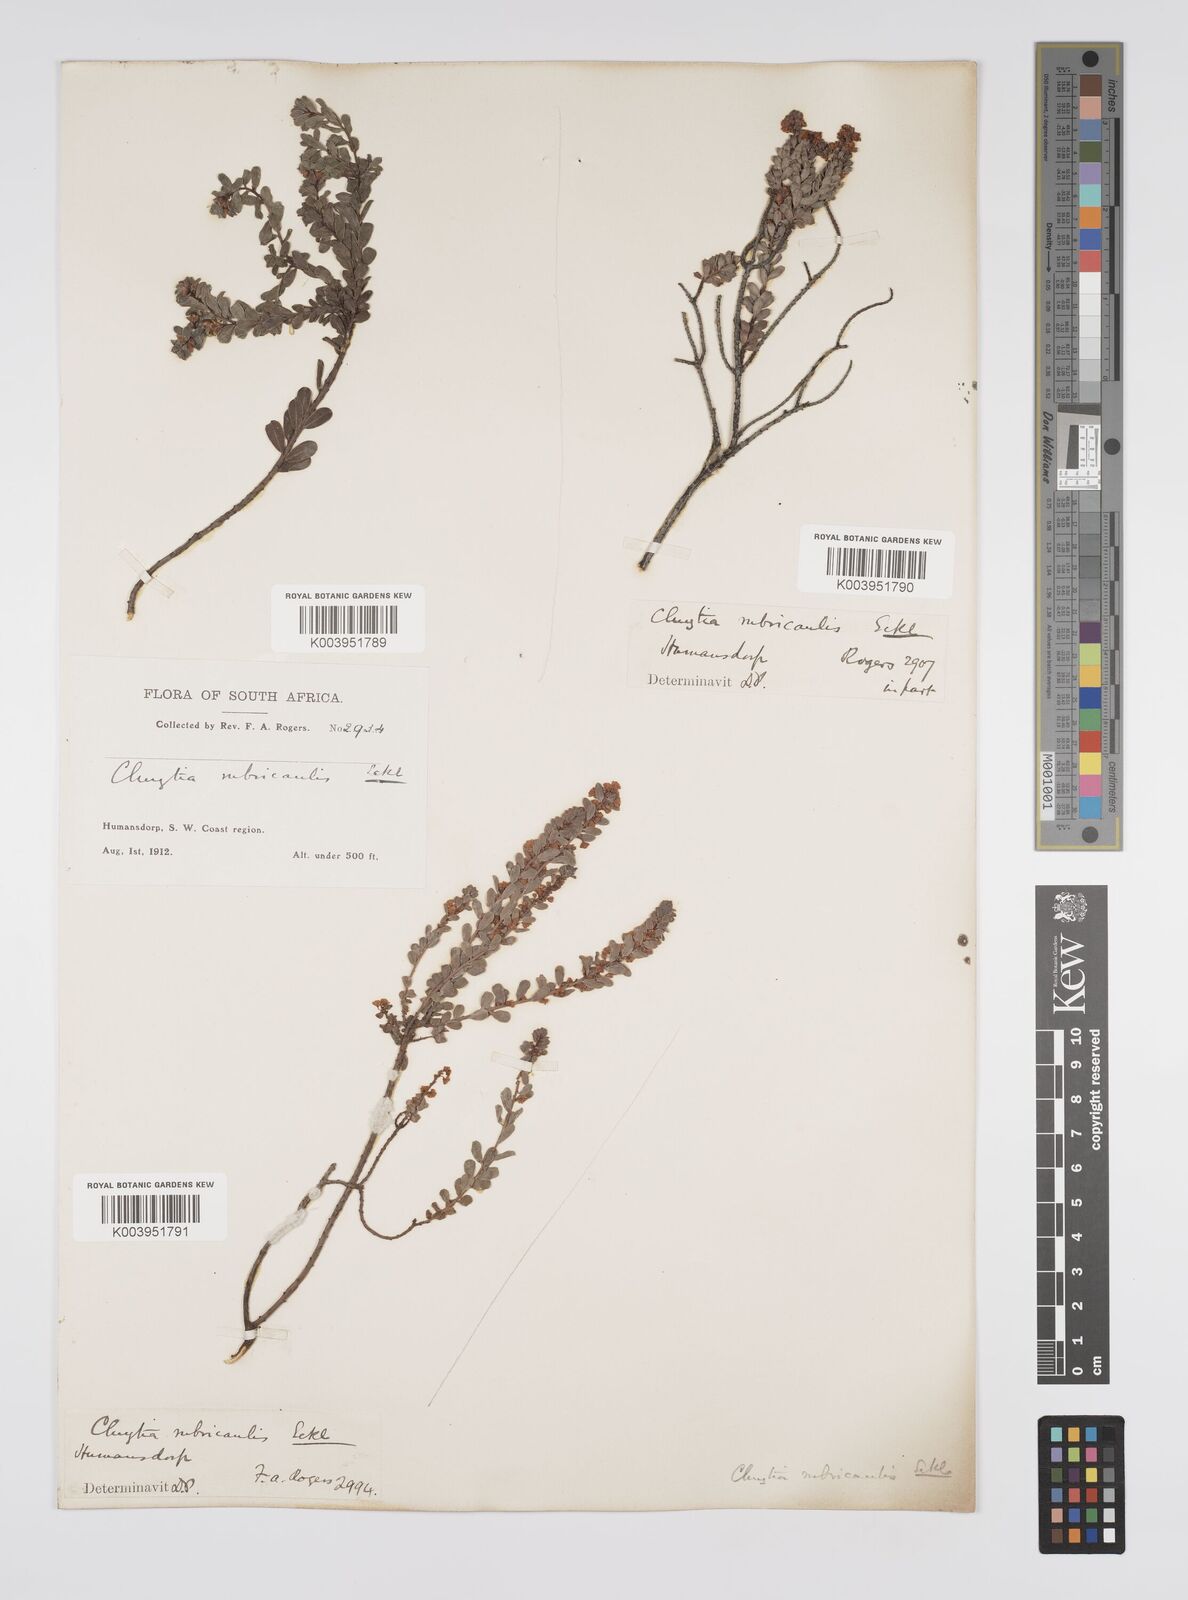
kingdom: Plantae
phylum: Tracheophyta
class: Magnoliopsida
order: Malpighiales
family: Peraceae
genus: Clutia
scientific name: Clutia rubricaulis
